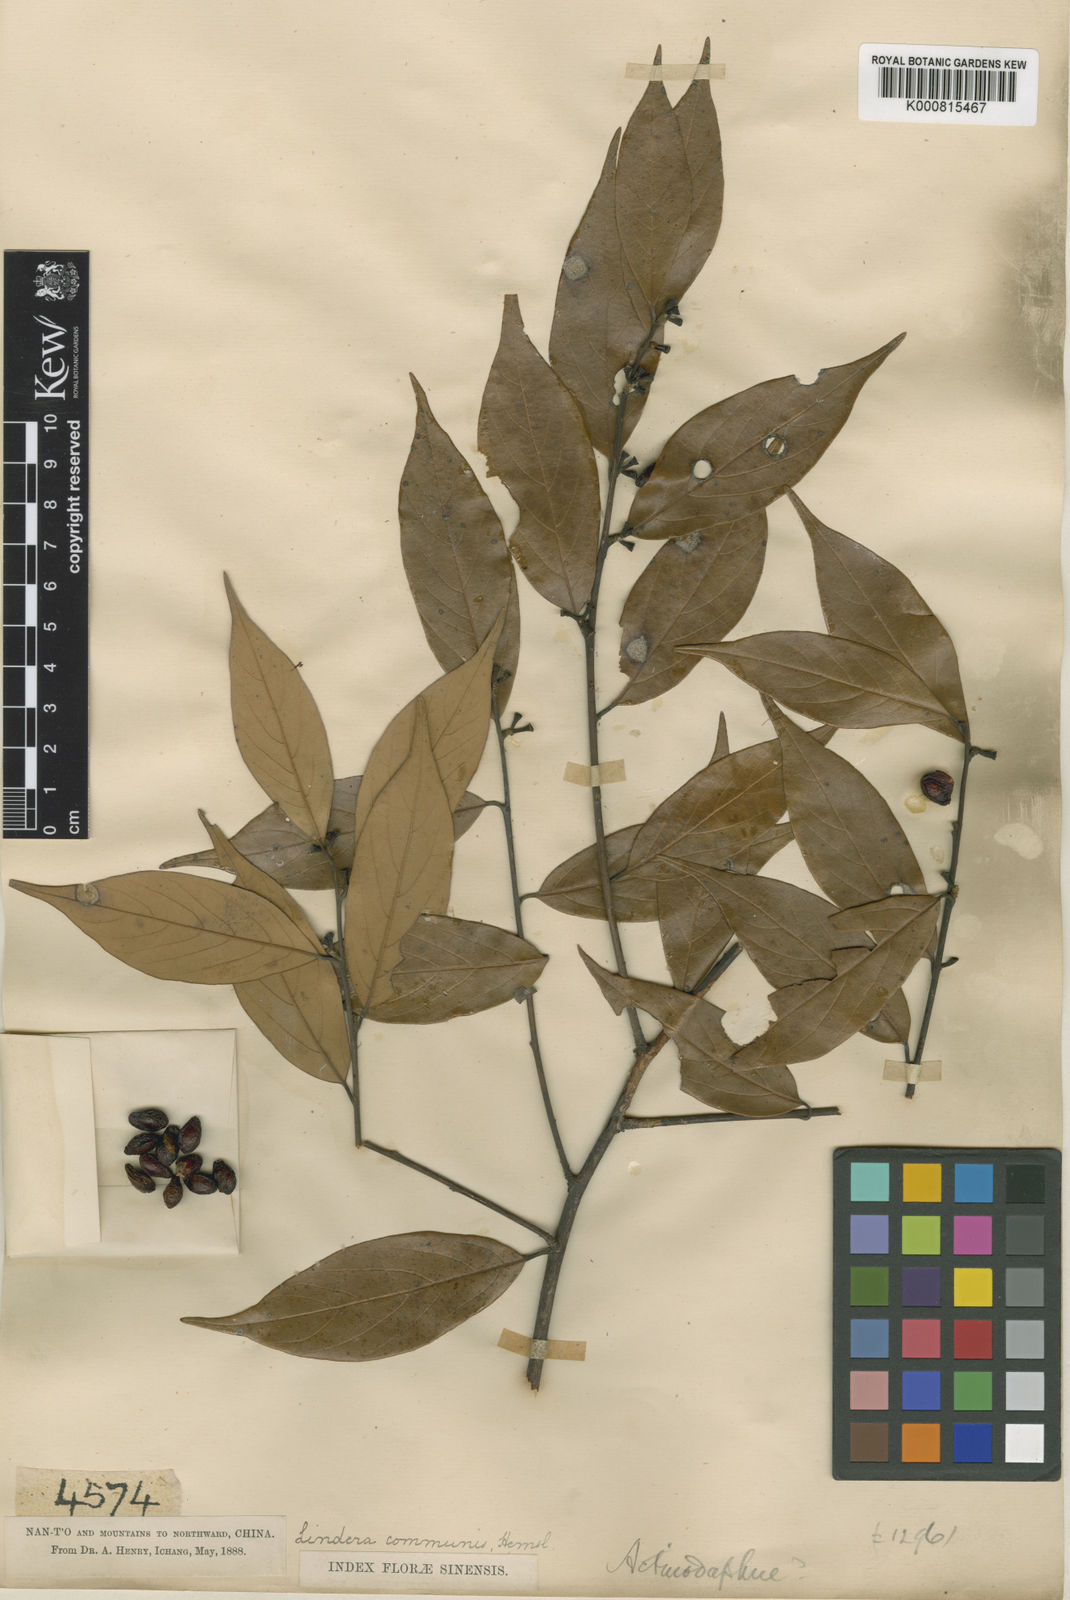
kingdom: Plantae
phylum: Tracheophyta
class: Magnoliopsida
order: Laurales
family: Lauraceae
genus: Lindera
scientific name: Lindera communis
